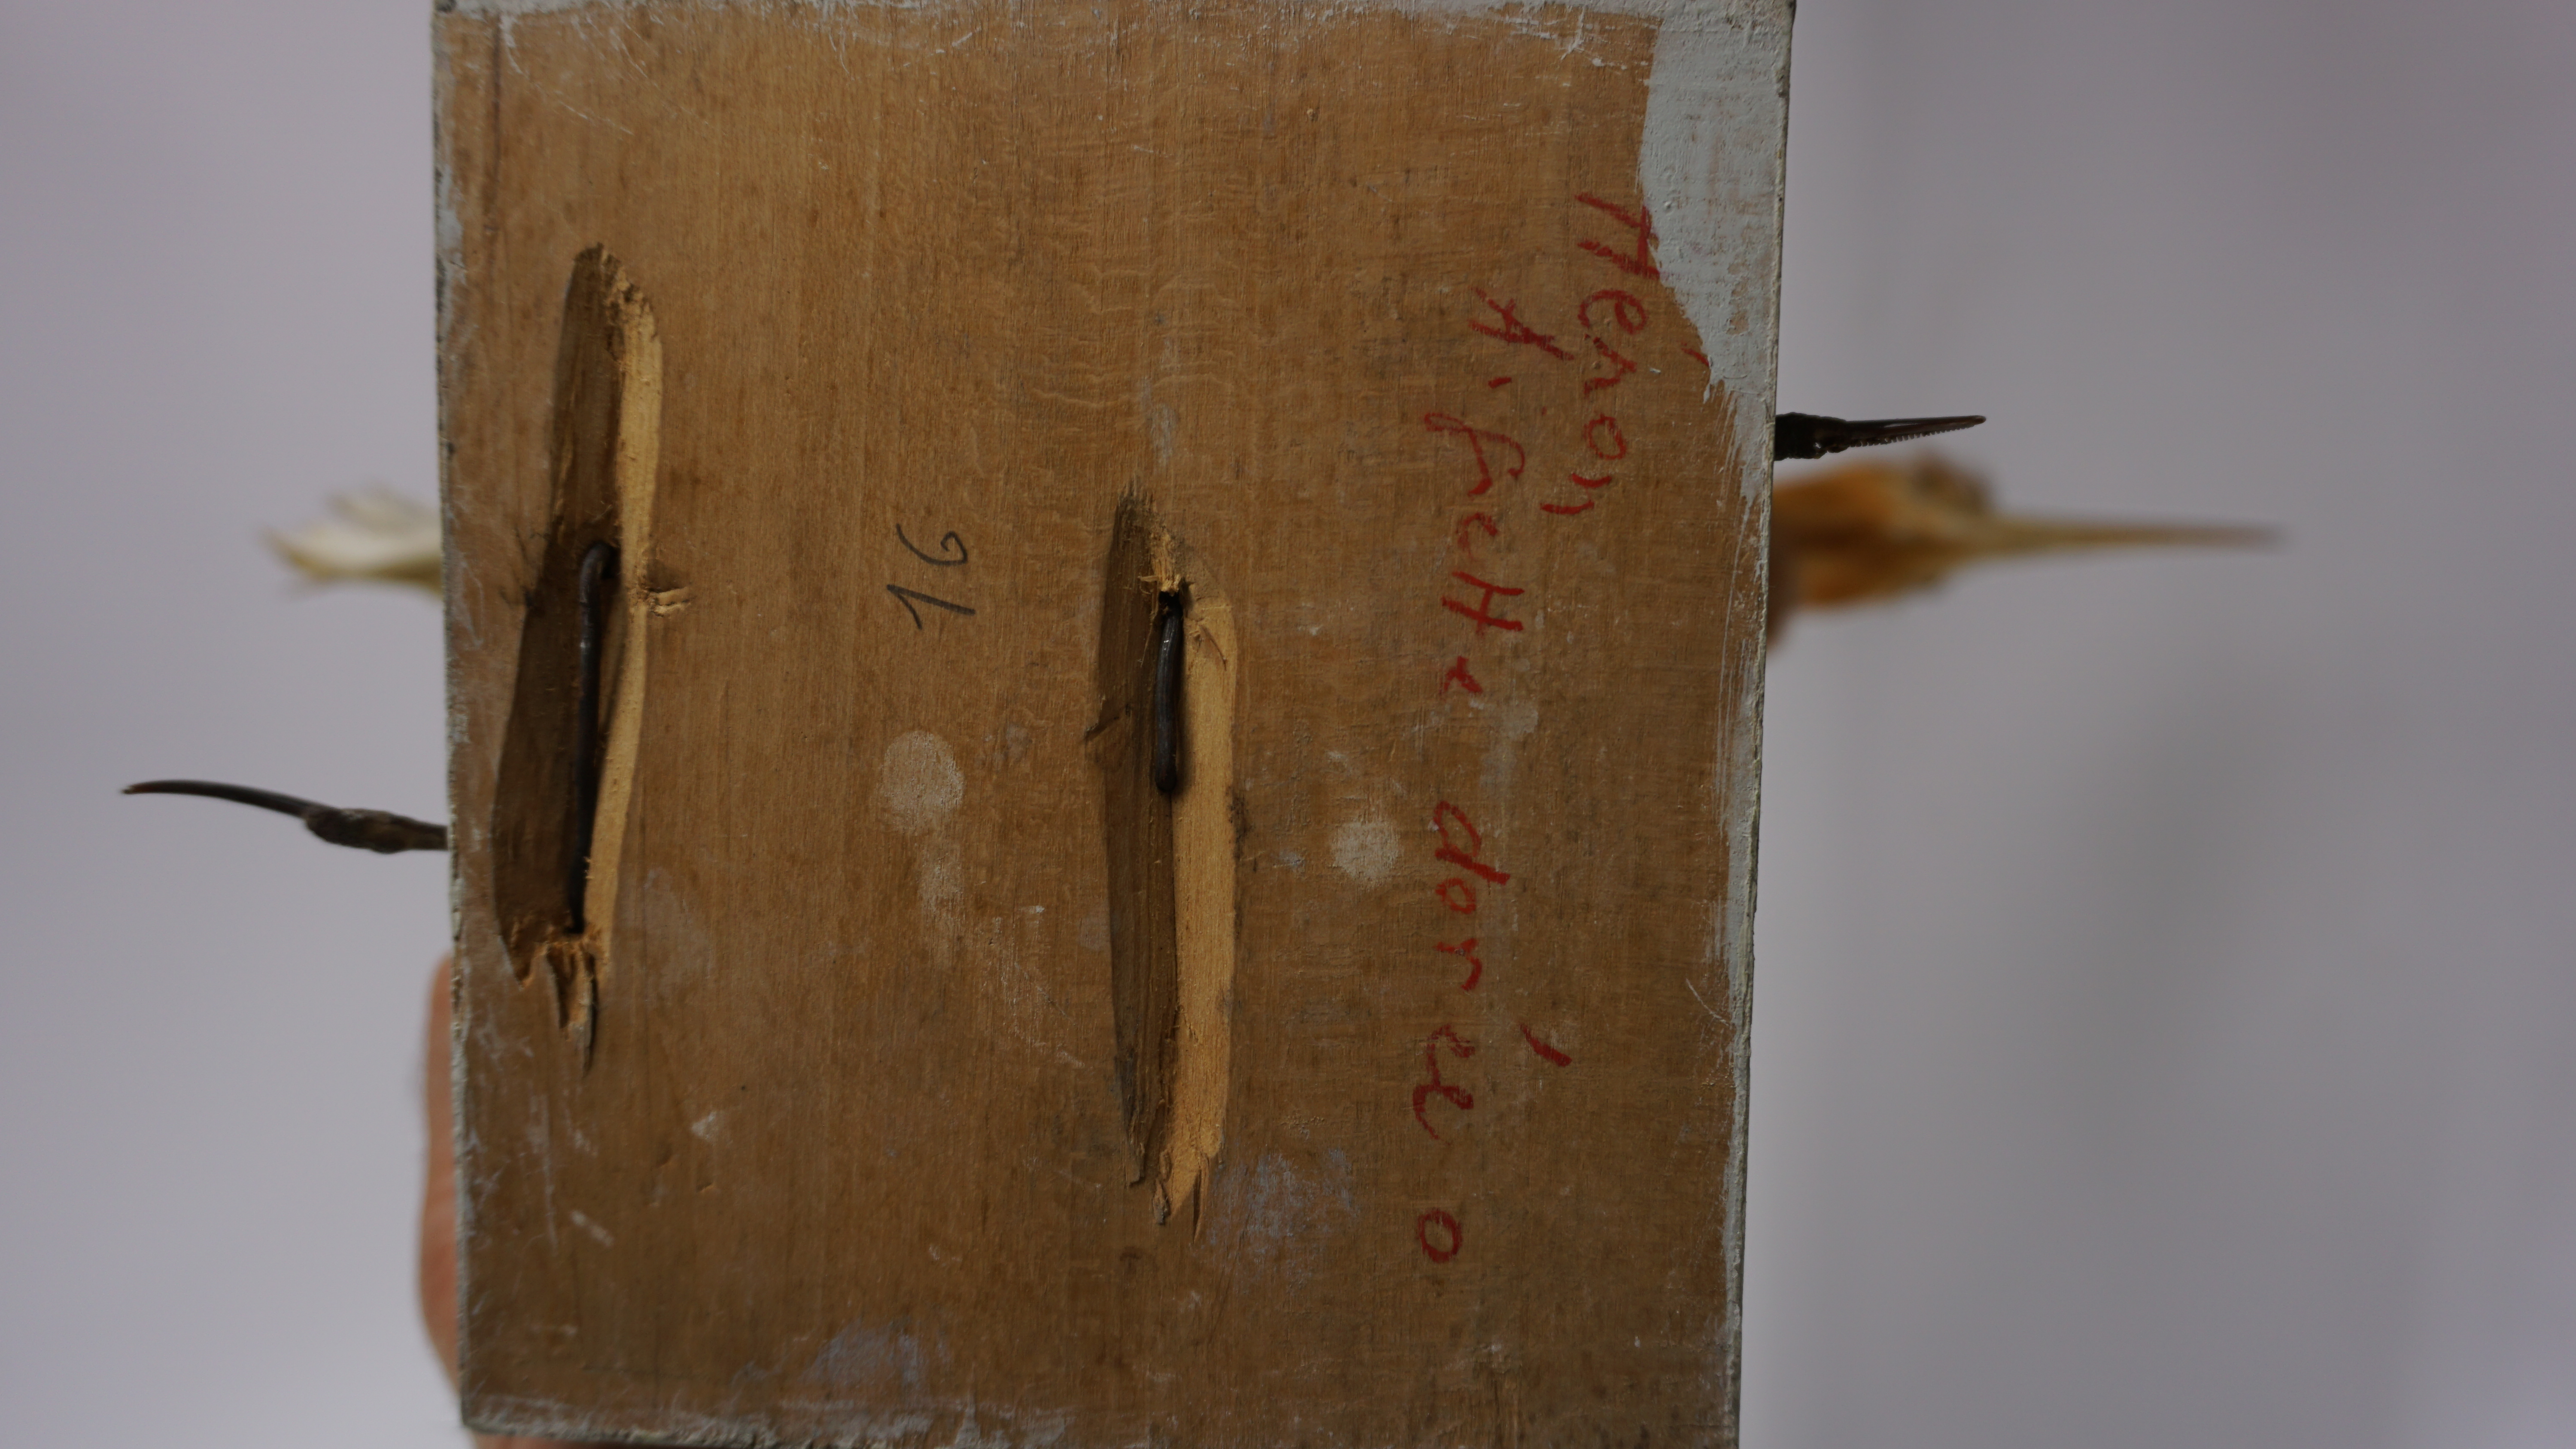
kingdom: Animalia
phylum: Chordata
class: Aves
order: Pelecaniformes
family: Ardeidae
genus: Bubulcus
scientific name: Bubulcus coromandus
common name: Eastern cattle egret
